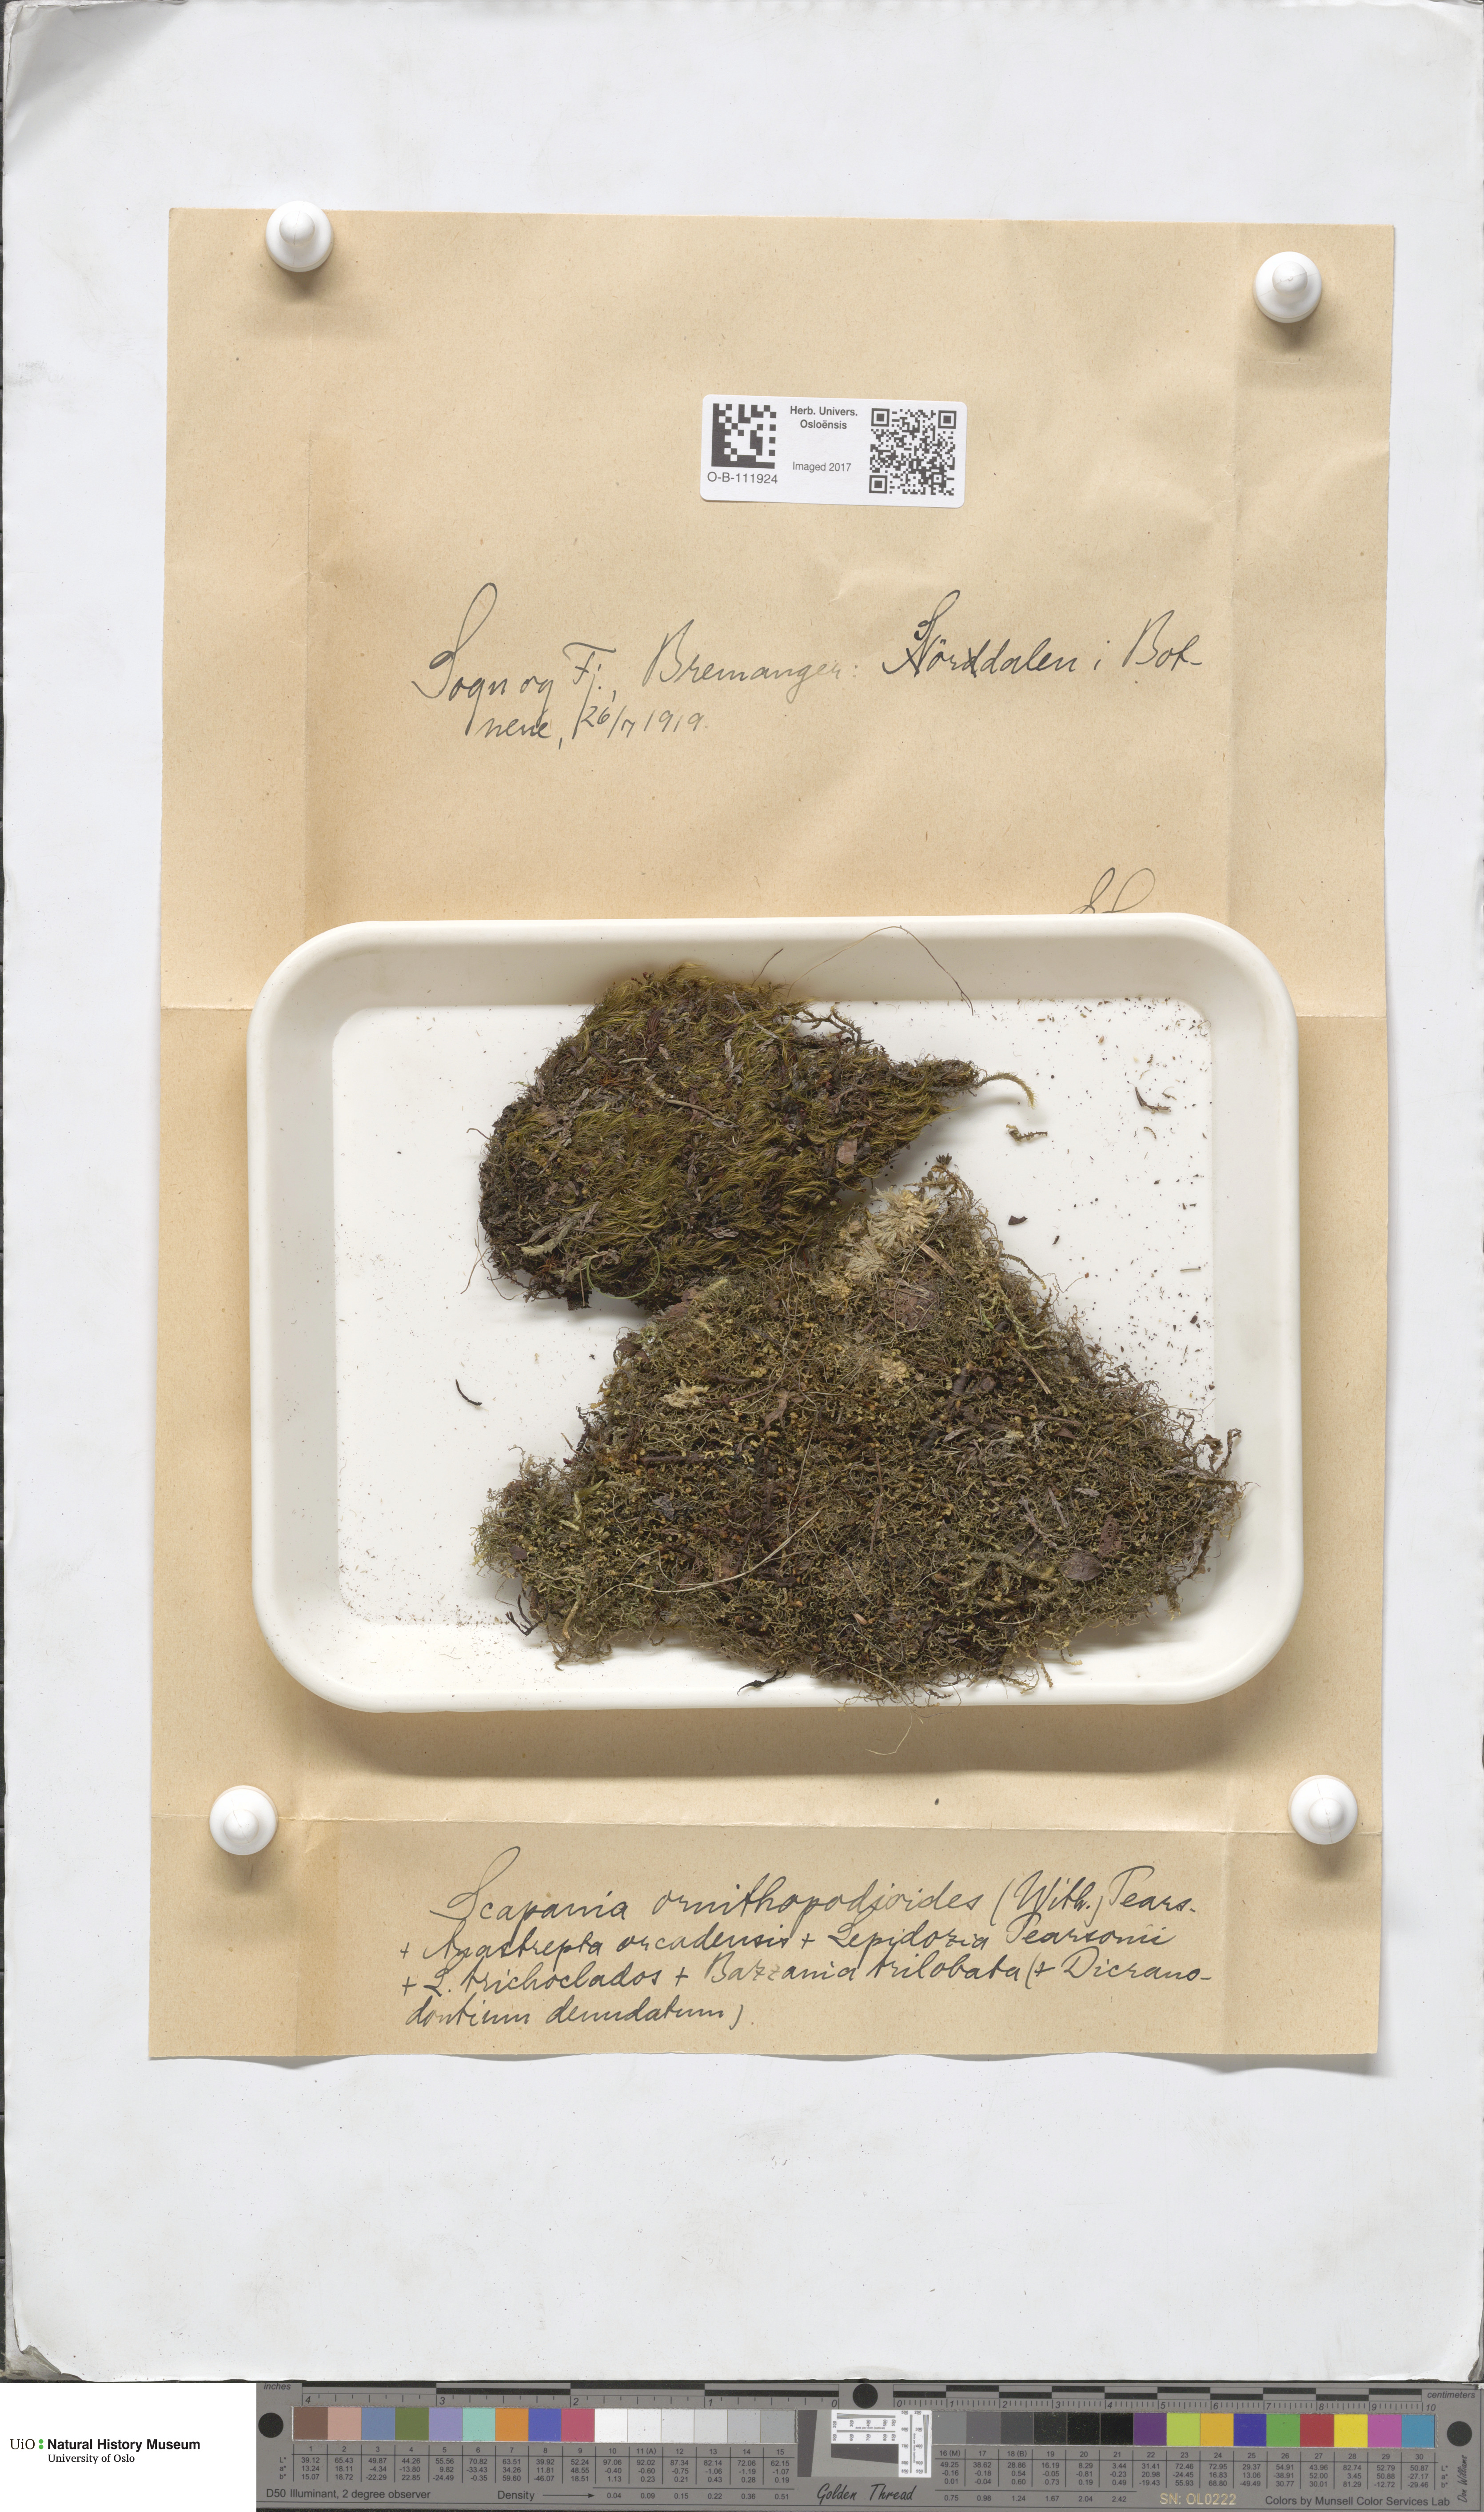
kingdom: Plantae
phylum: Marchantiophyta
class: Jungermanniopsida
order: Jungermanniales
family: Scapaniaceae
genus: Scapania
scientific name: Scapania ornithopodioides
